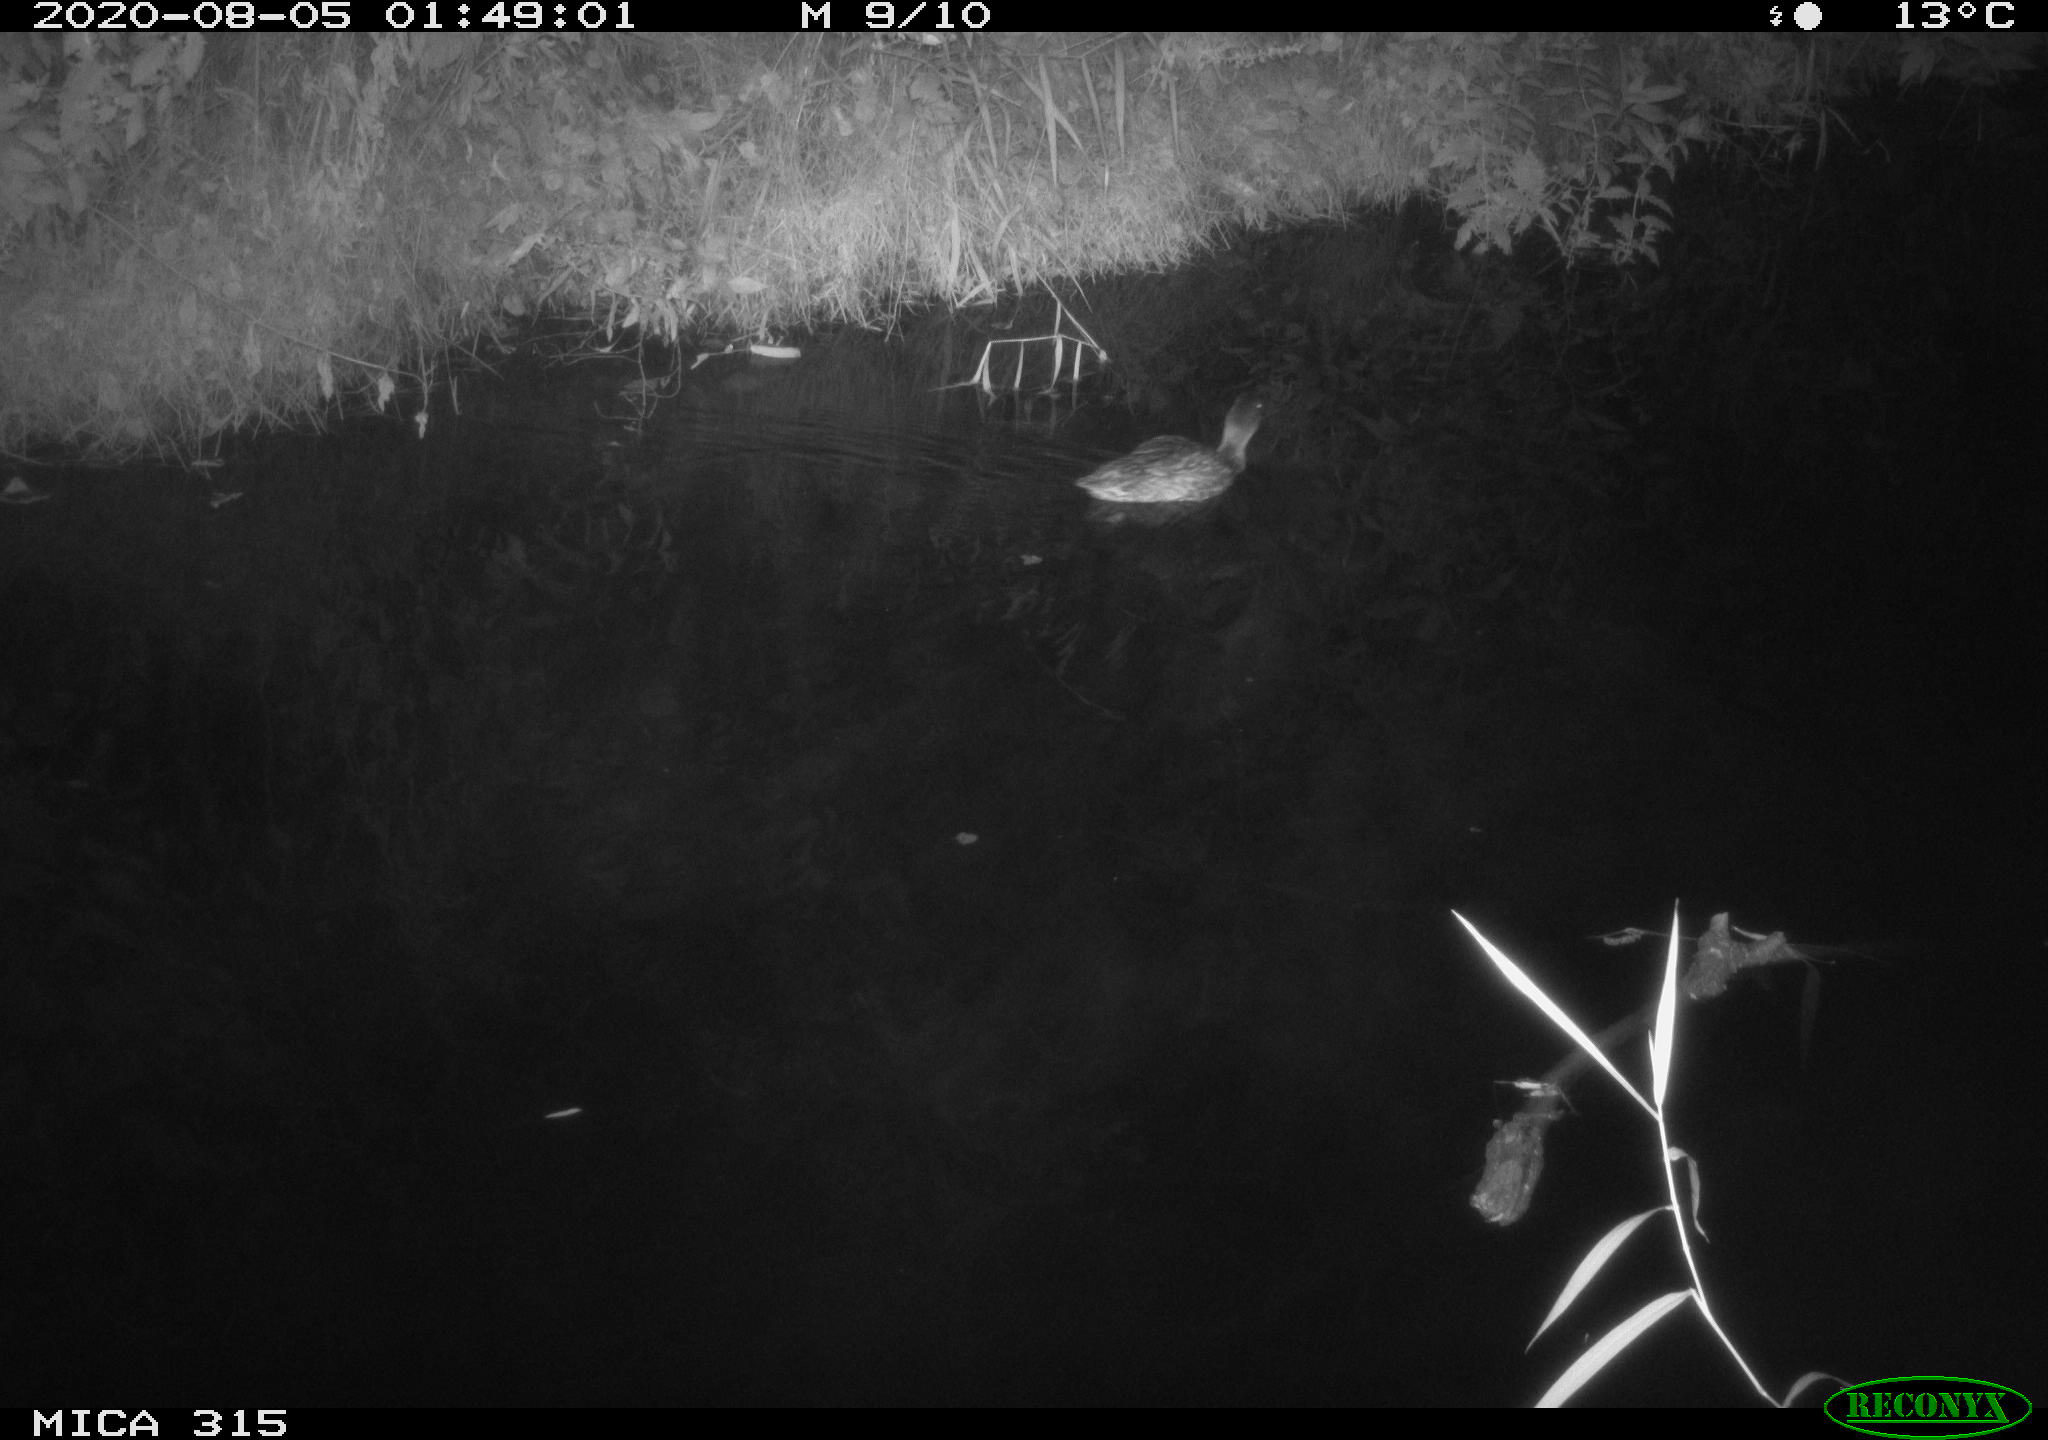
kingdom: Animalia
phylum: Chordata
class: Aves
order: Anseriformes
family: Anatidae
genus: Anas
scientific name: Anas platyrhynchos
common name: Mallard
